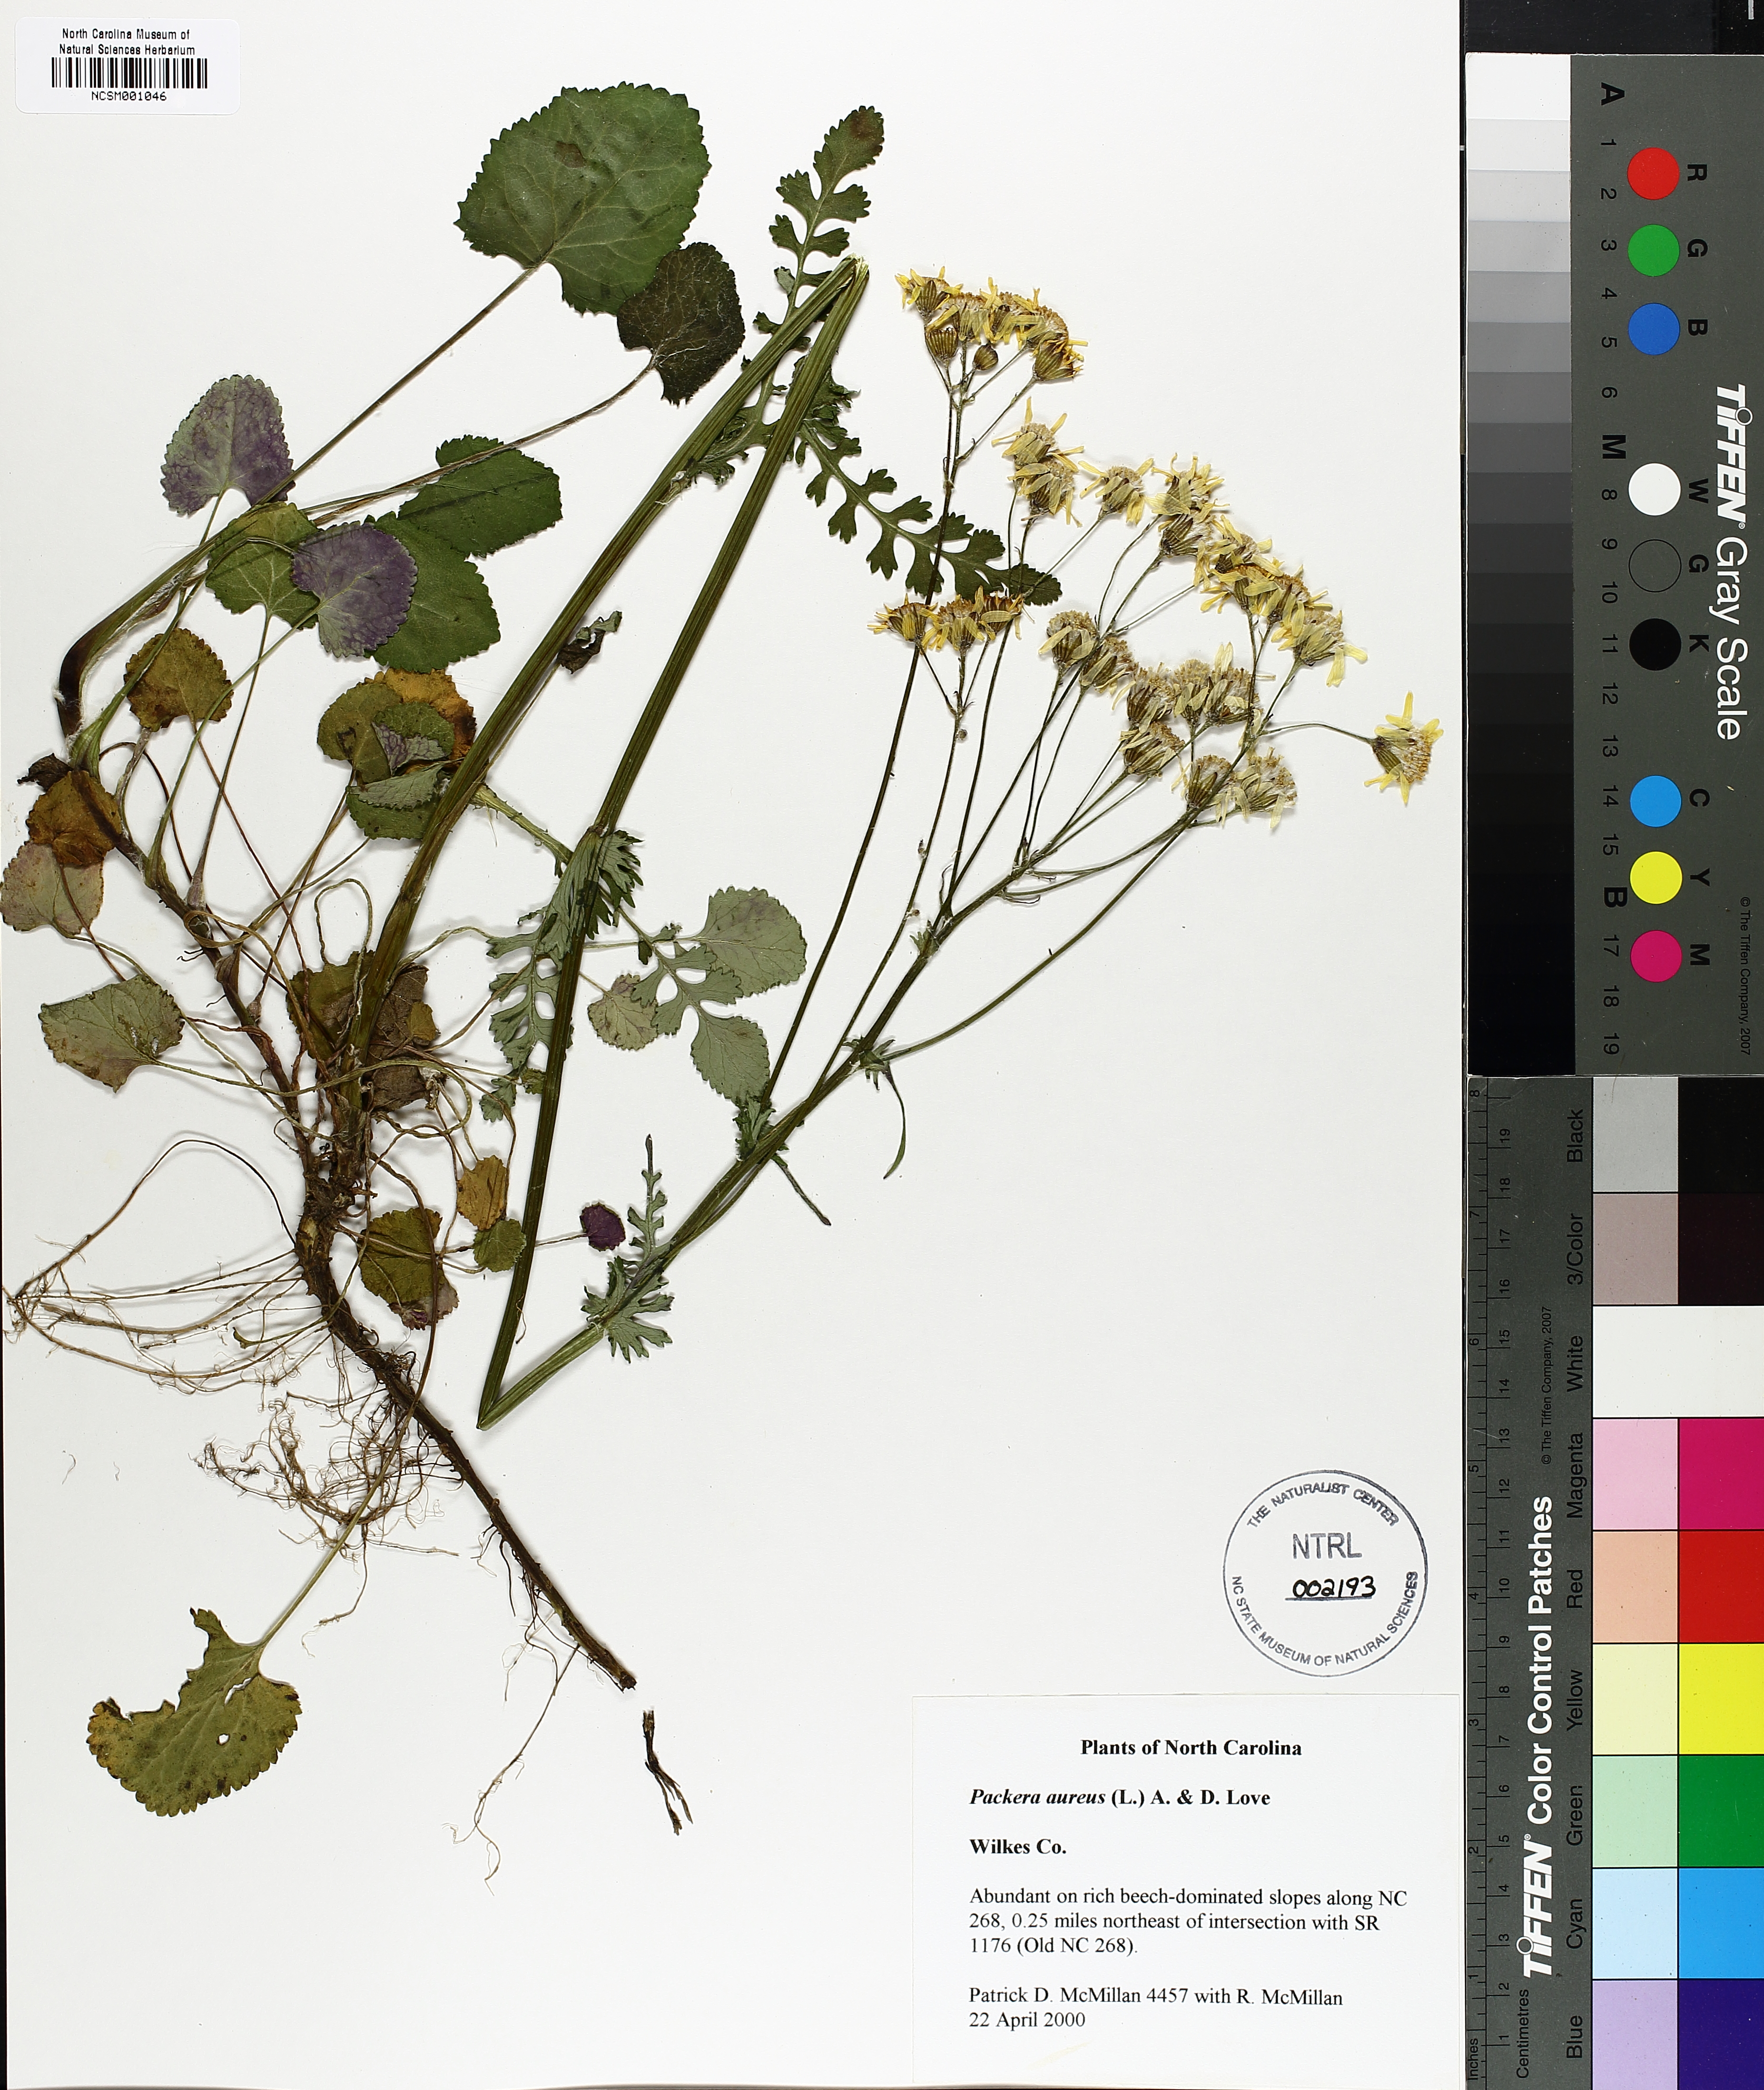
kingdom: Plantae
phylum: Tracheophyta
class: Magnoliopsida
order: Asterales
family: Asteraceae
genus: Packera
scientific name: Packera aurea
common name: Golden groundsel
